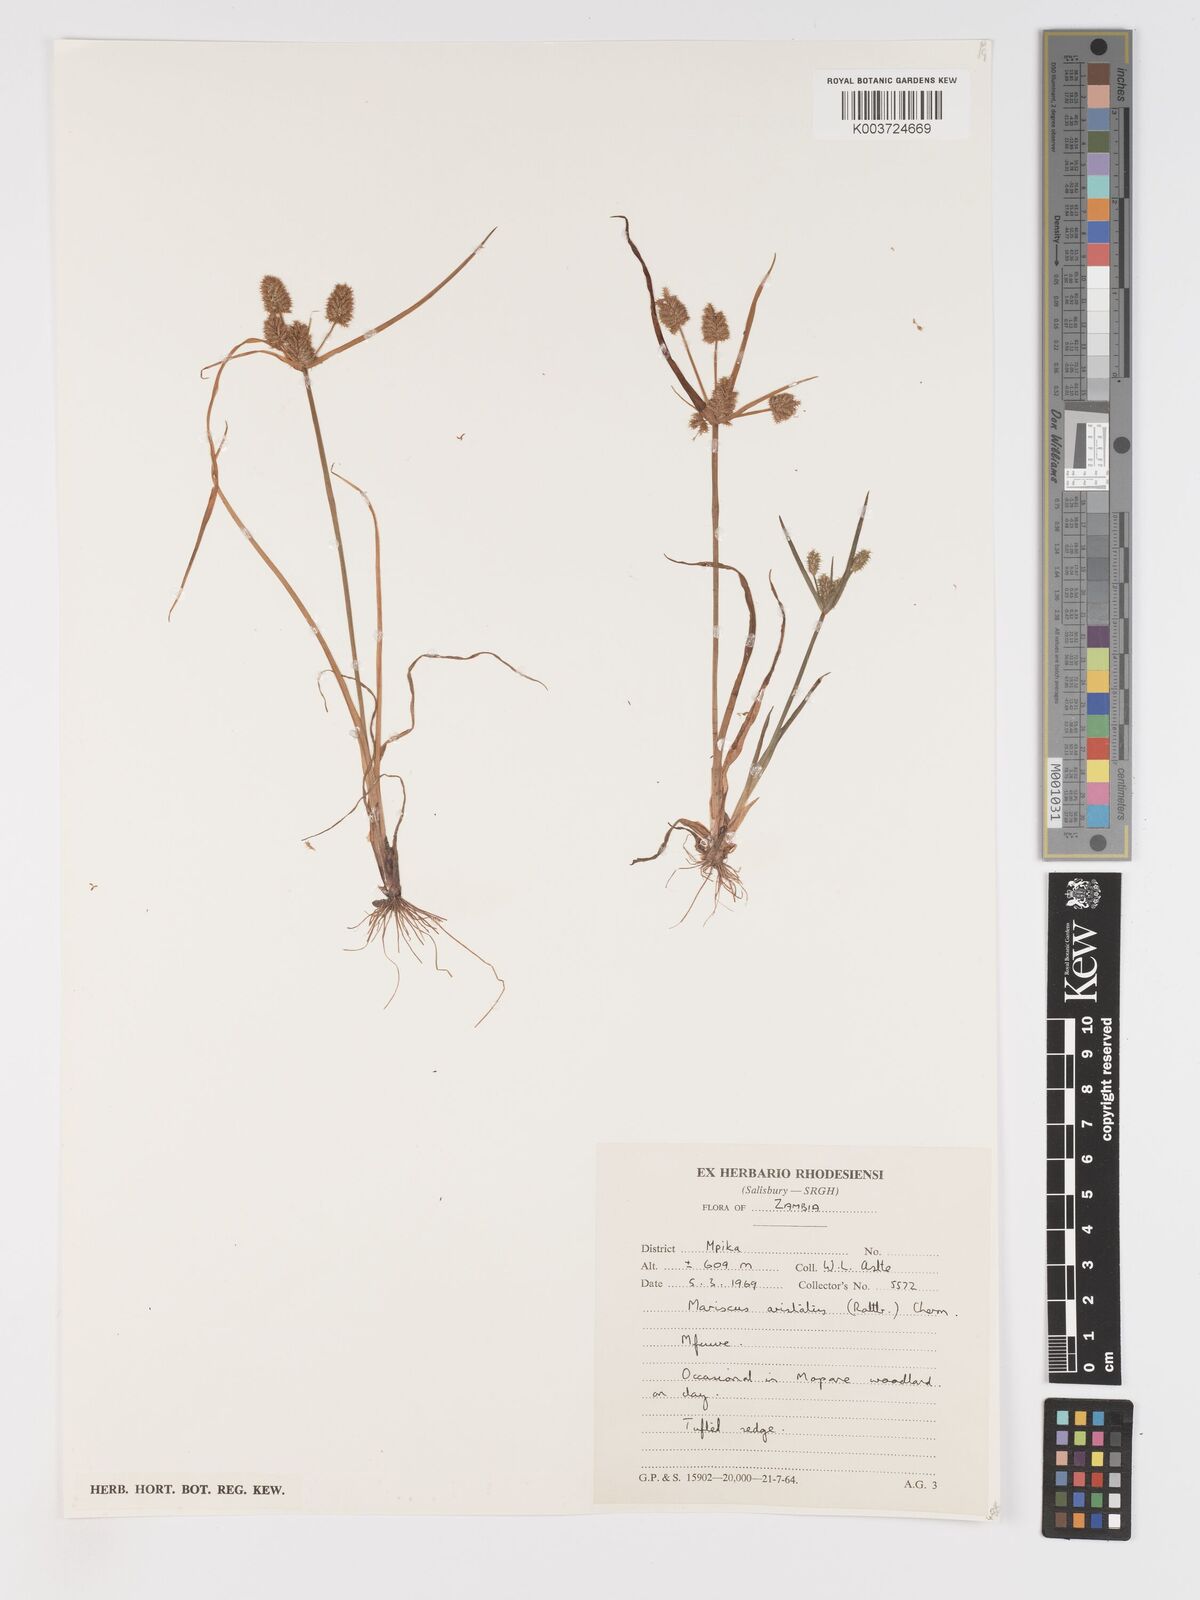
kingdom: Plantae
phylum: Tracheophyta
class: Liliopsida
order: Poales
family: Cyperaceae
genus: Cyperus
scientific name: Cyperus squarrosus
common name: Awned cyperus
